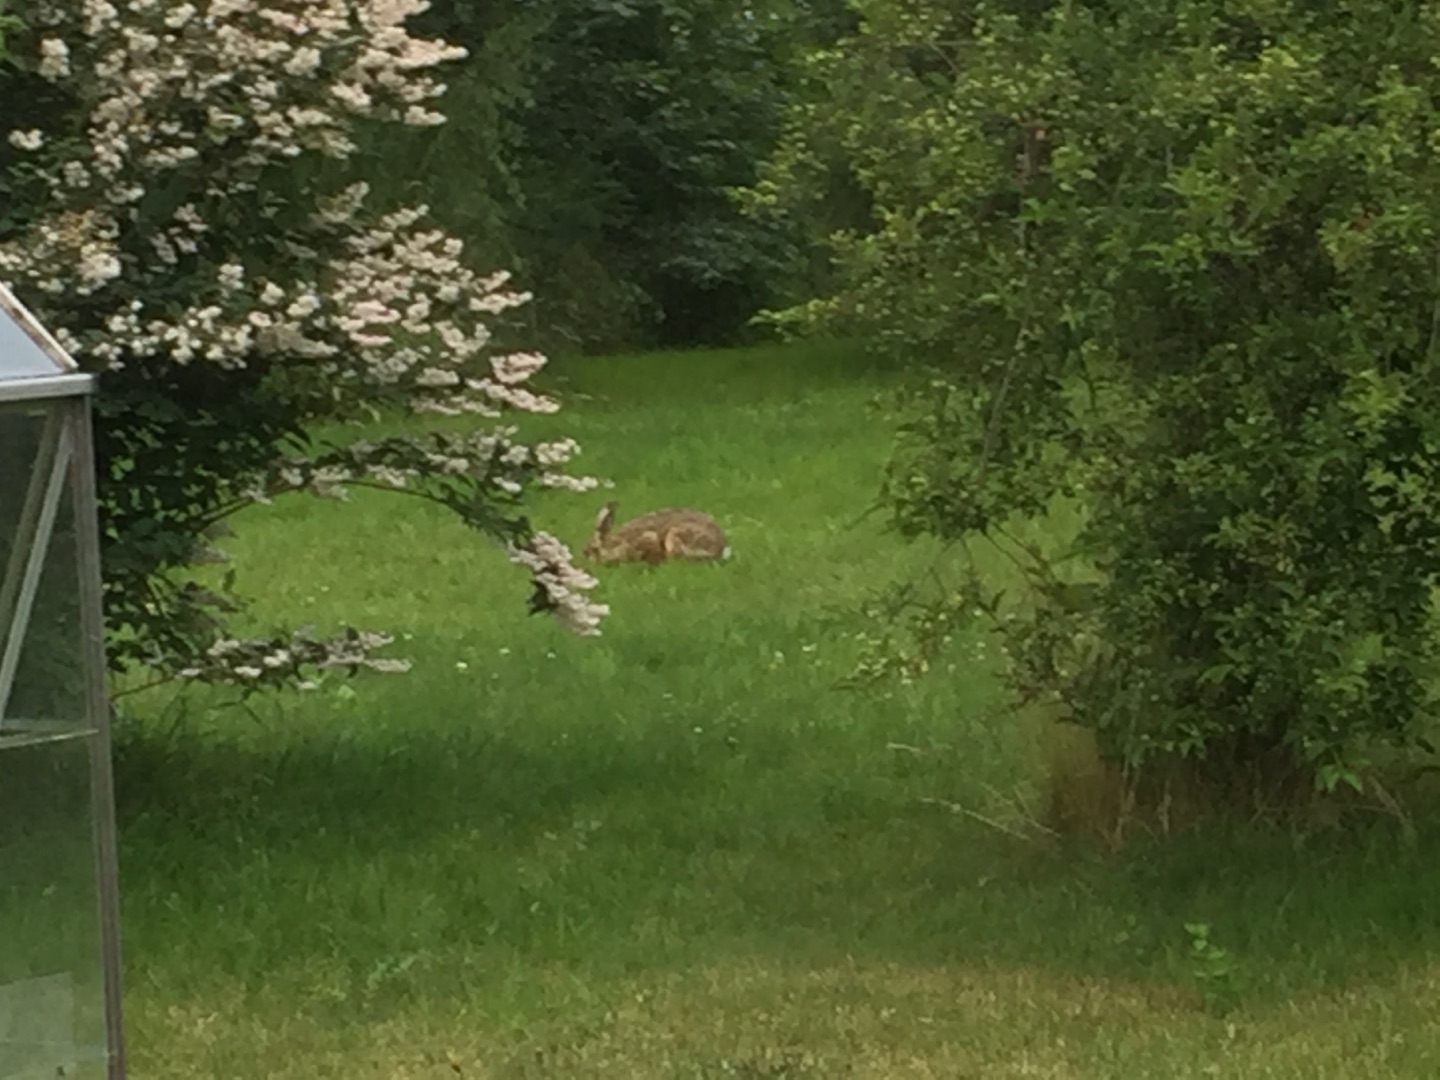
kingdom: Animalia
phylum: Chordata
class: Mammalia
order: Lagomorpha
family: Leporidae
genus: Lepus
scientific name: Lepus europaeus
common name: Hare
